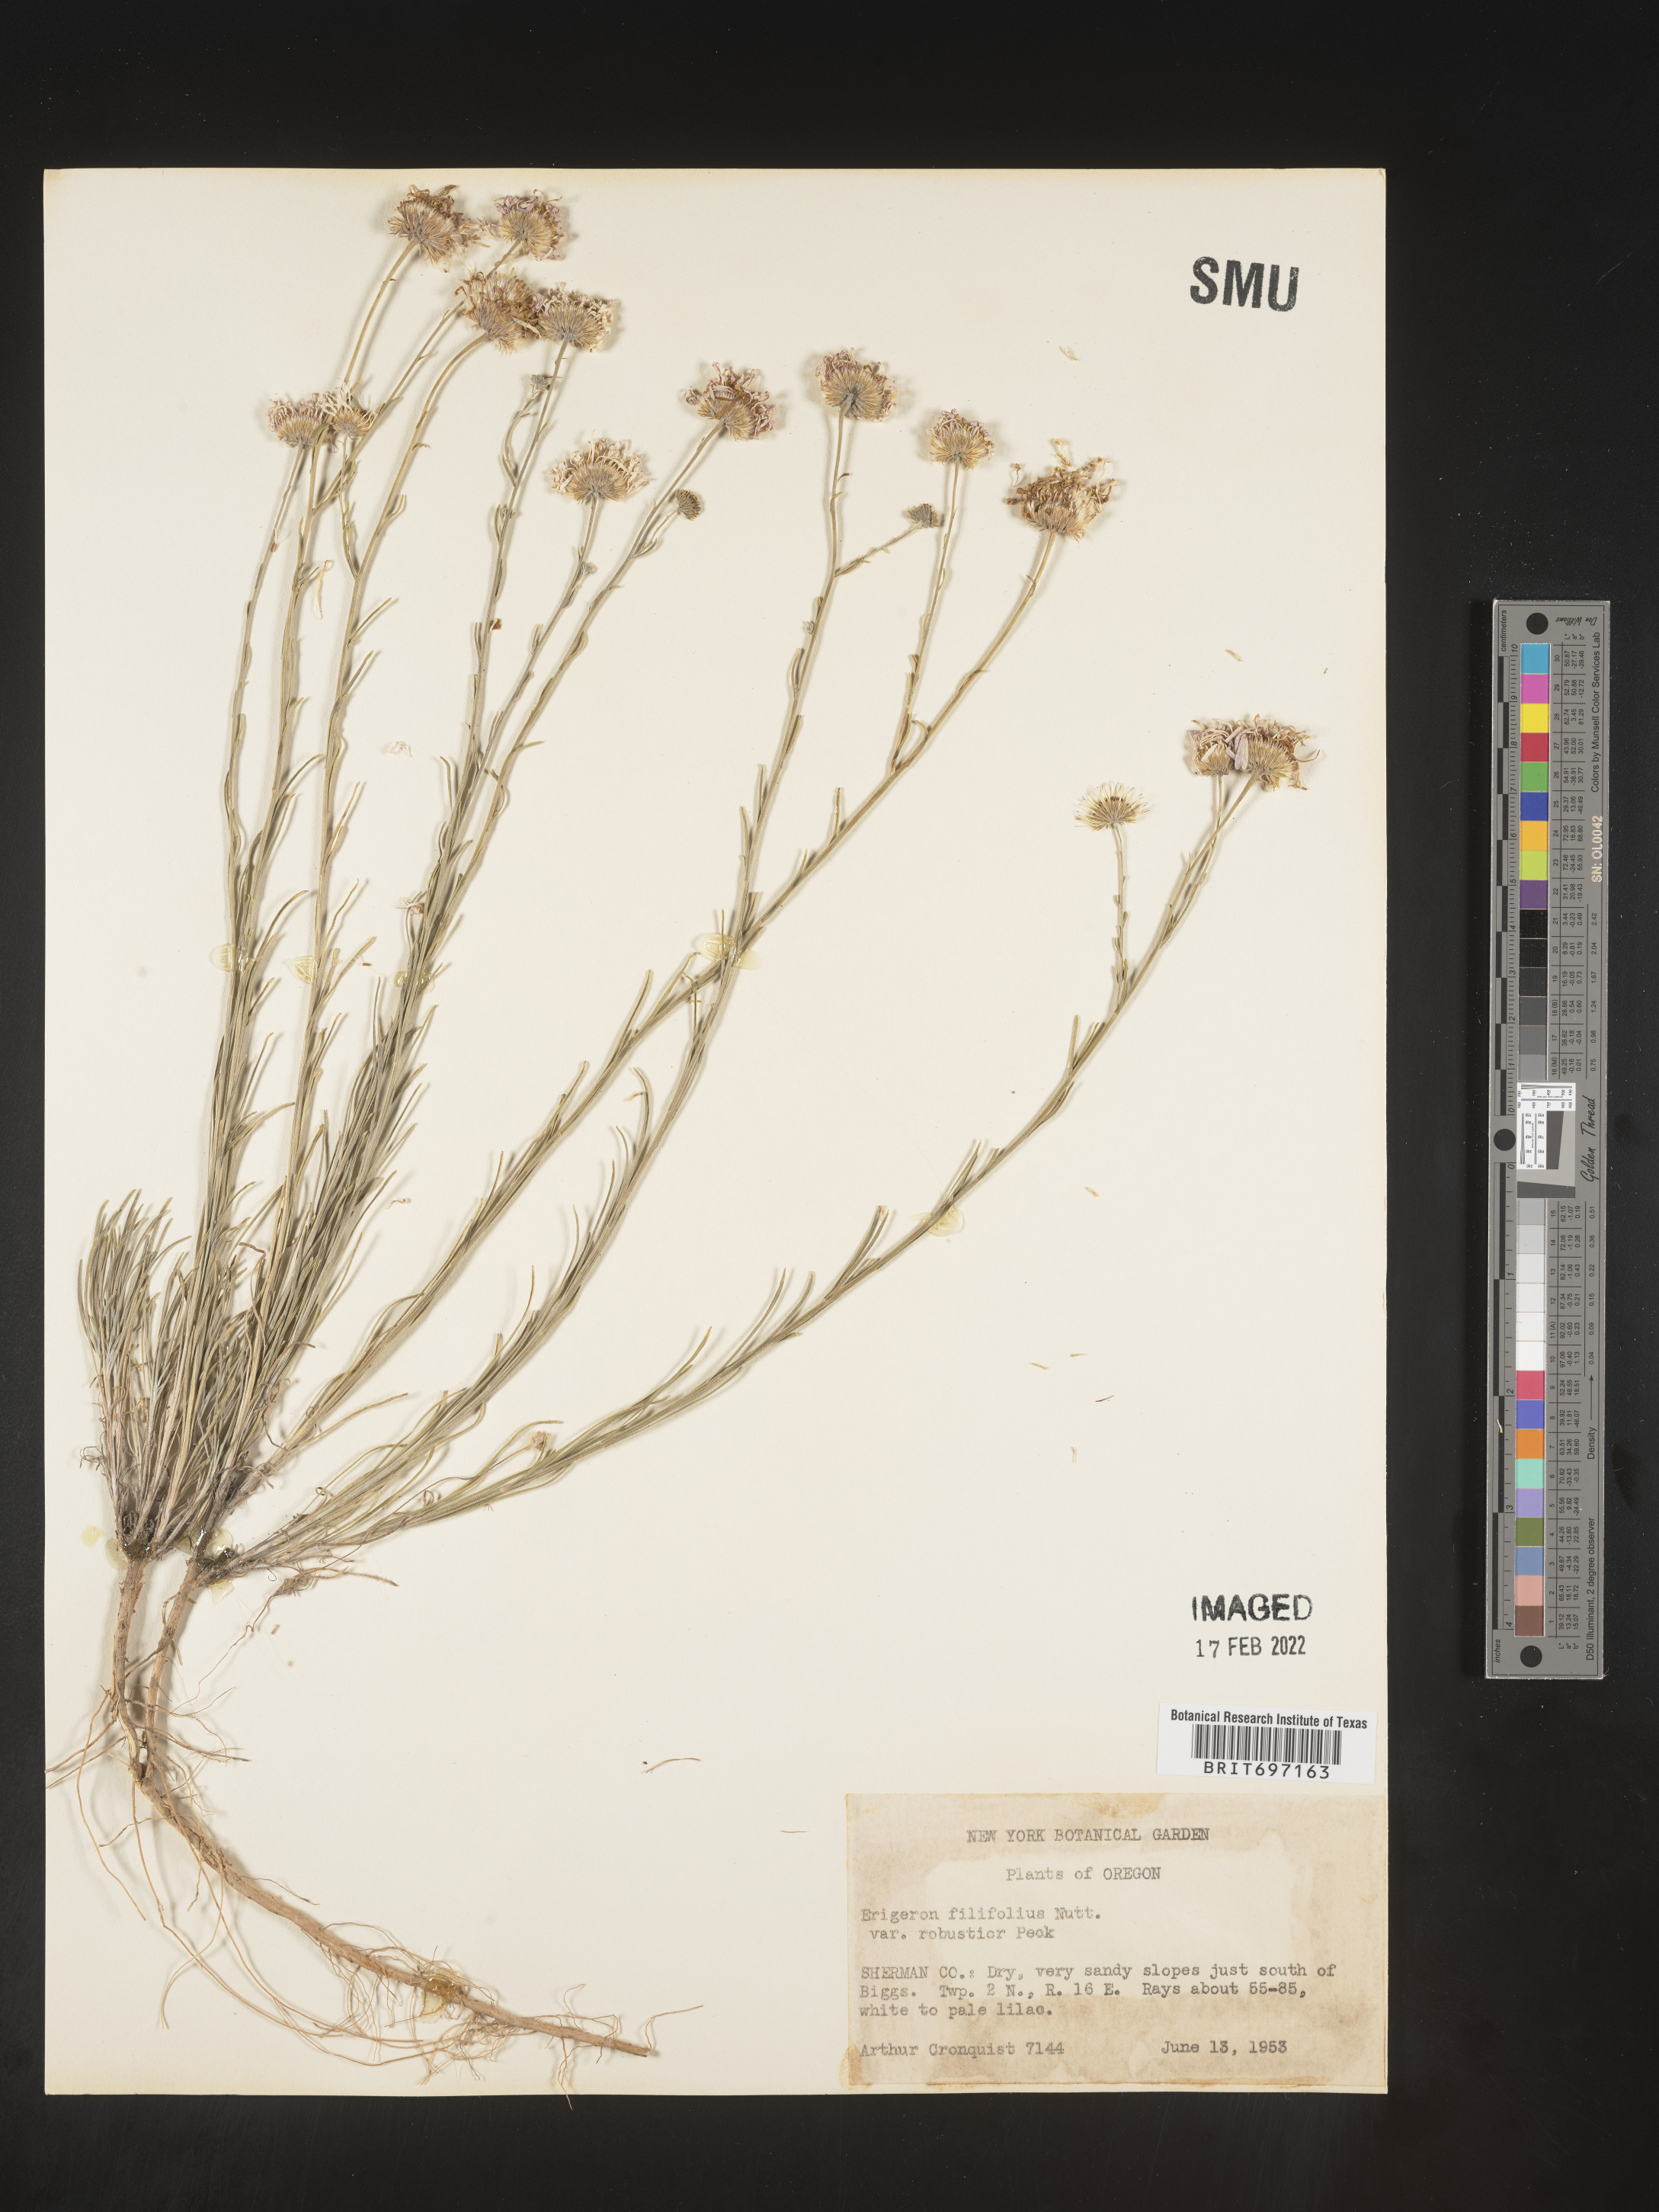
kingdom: Plantae
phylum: Tracheophyta
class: Magnoliopsida
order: Asterales
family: Asteraceae
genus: Erigeron
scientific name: Erigeron filifolius
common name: Threadleaf fleabane
